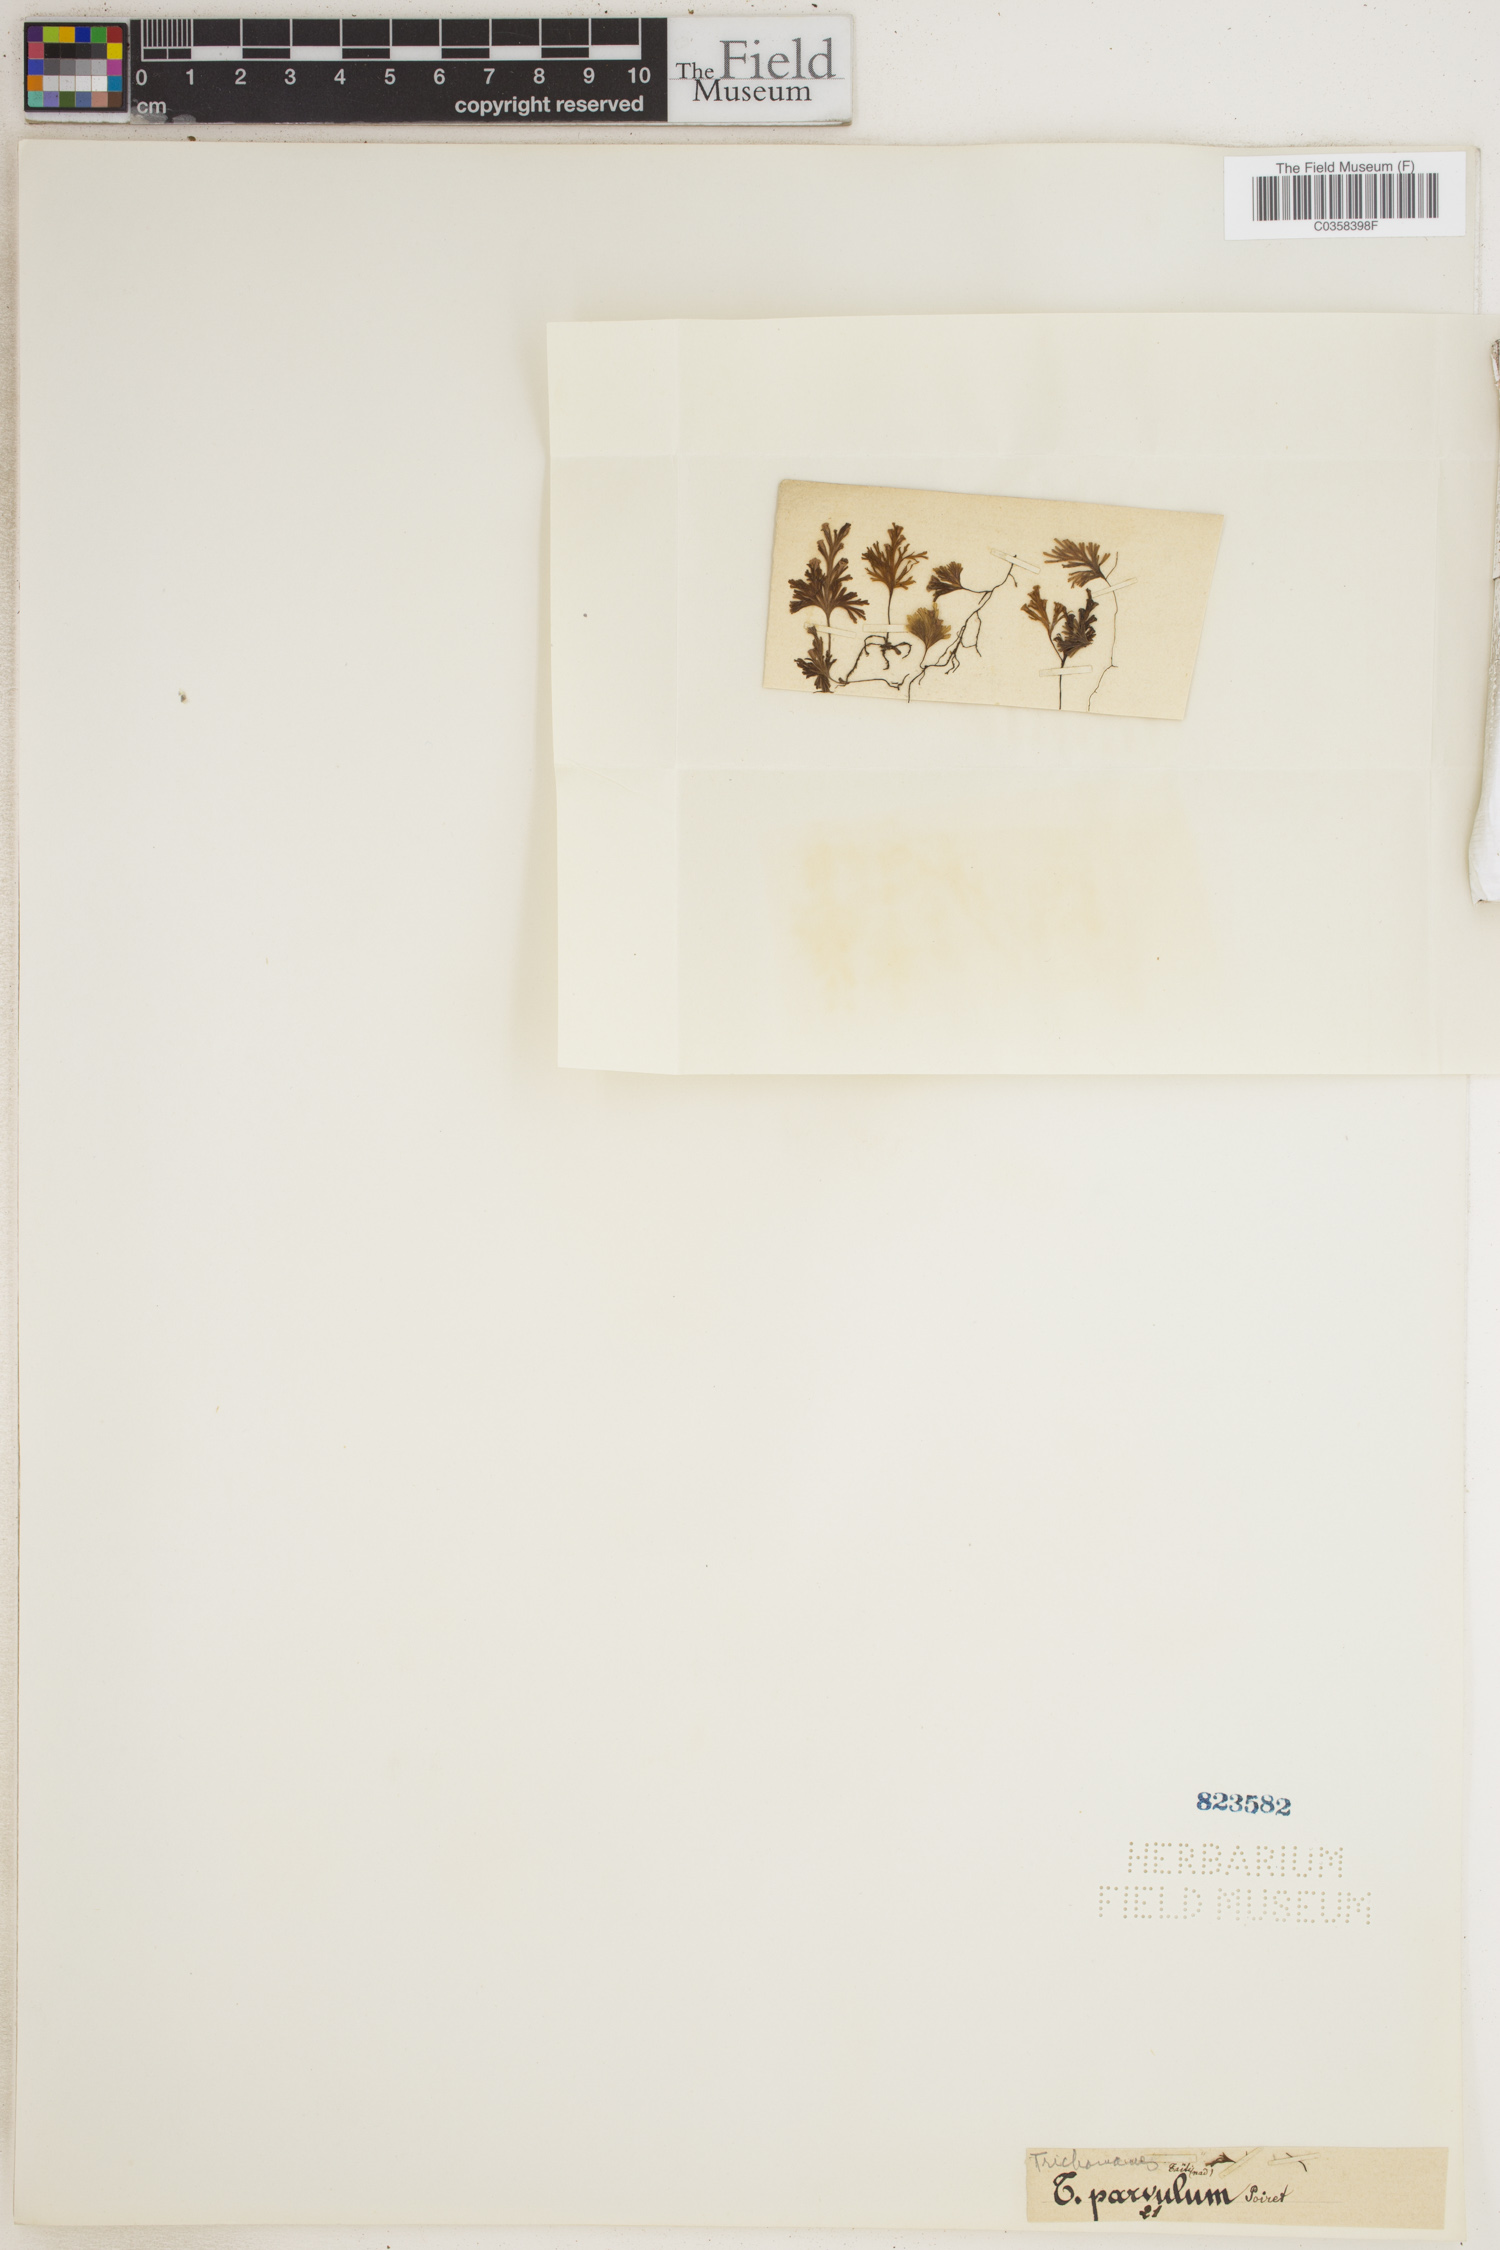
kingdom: Plantae
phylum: Tracheophyta
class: Polypodiopsida
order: Hymenophyllales
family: Hymenophyllaceae
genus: Crepidomanes
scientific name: Crepidomanes parvulum
